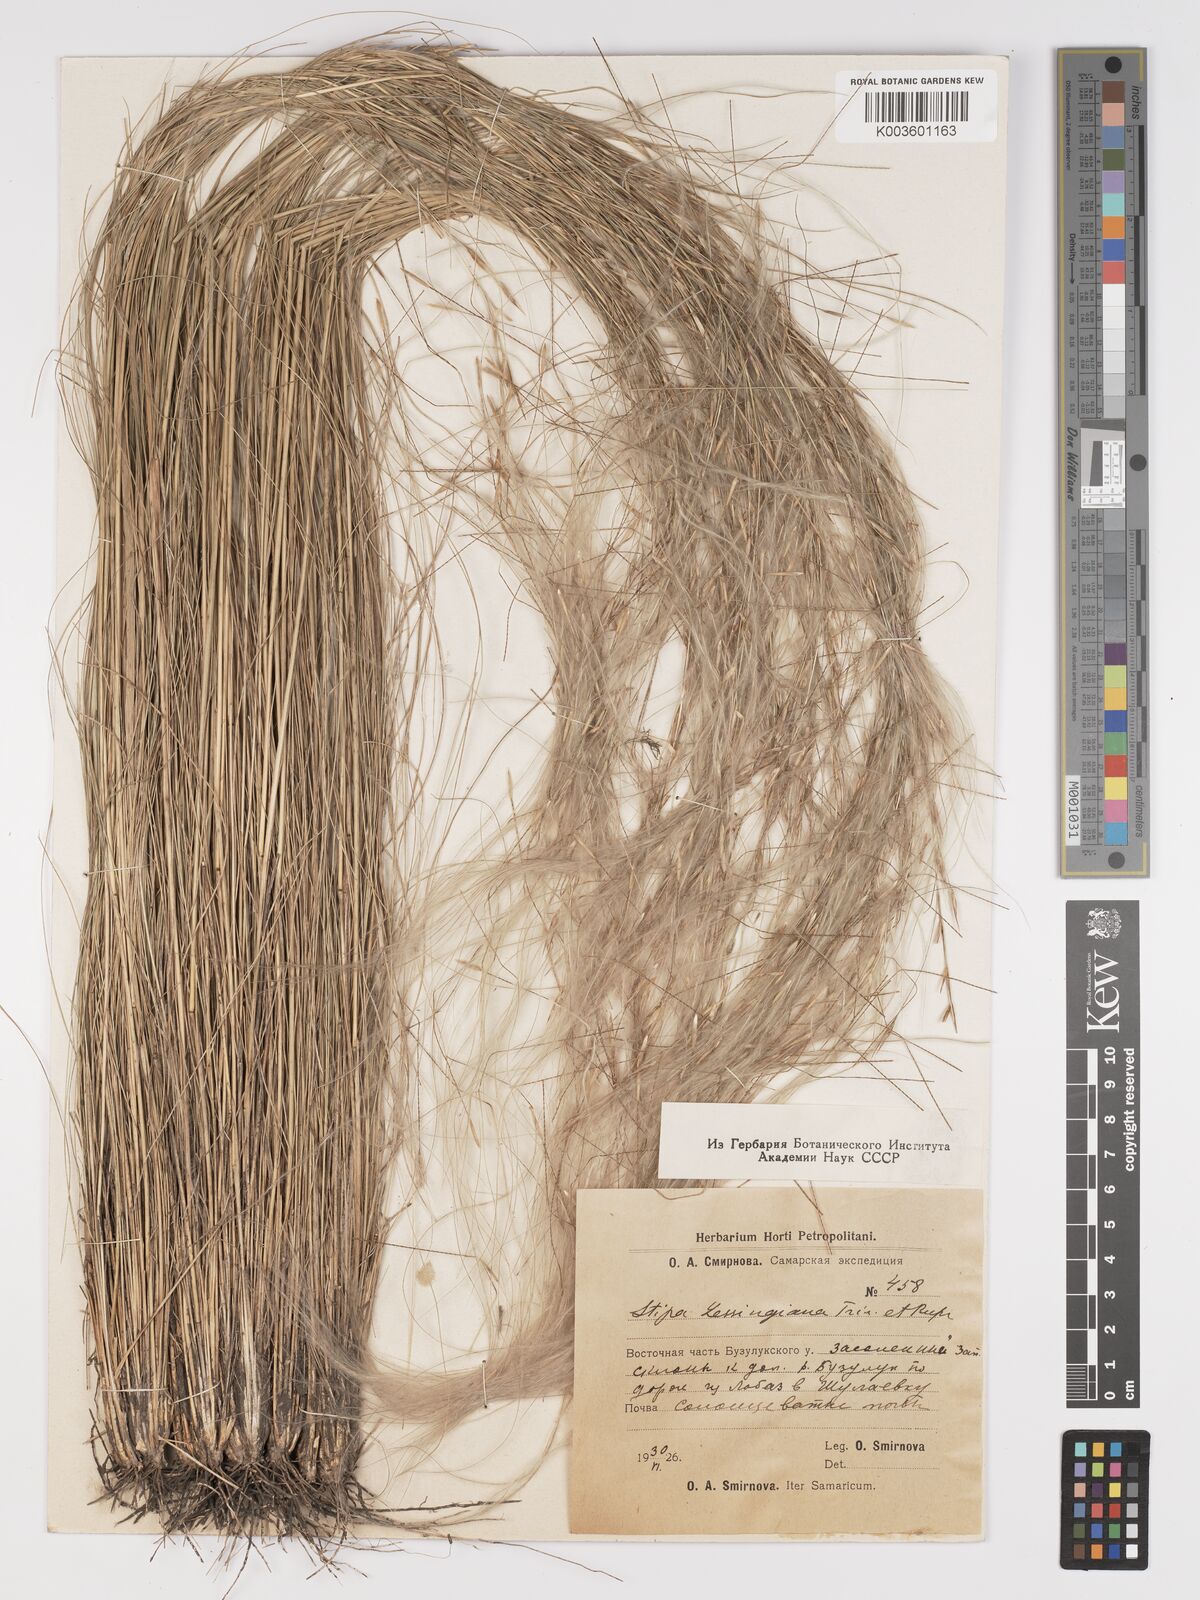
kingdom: Plantae
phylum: Tracheophyta
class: Liliopsida
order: Poales
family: Poaceae
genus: Stipa
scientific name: Stipa lessingiana
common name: Needle grass
